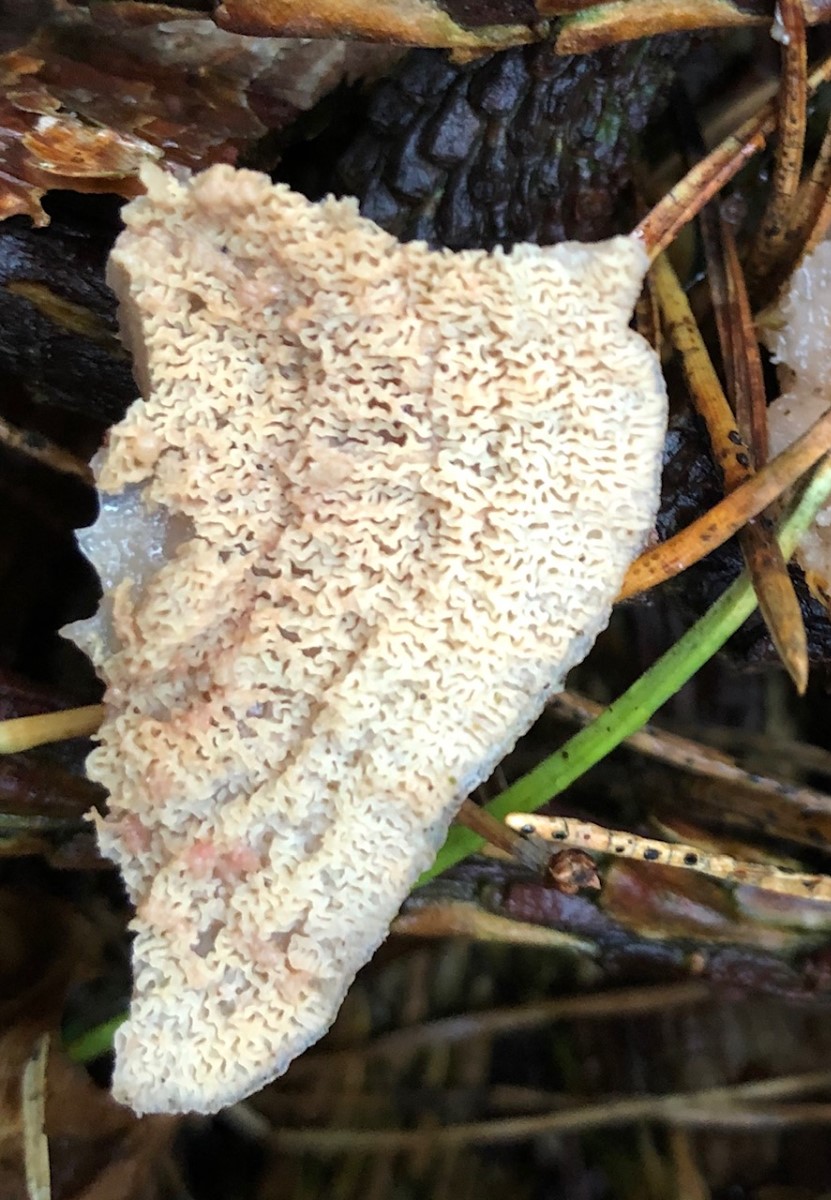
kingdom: Fungi
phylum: Basidiomycota
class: Agaricomycetes
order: Polyporales
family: Meruliaceae
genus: Phlebia
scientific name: Phlebia tremellosa
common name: bævrende åresvamp
